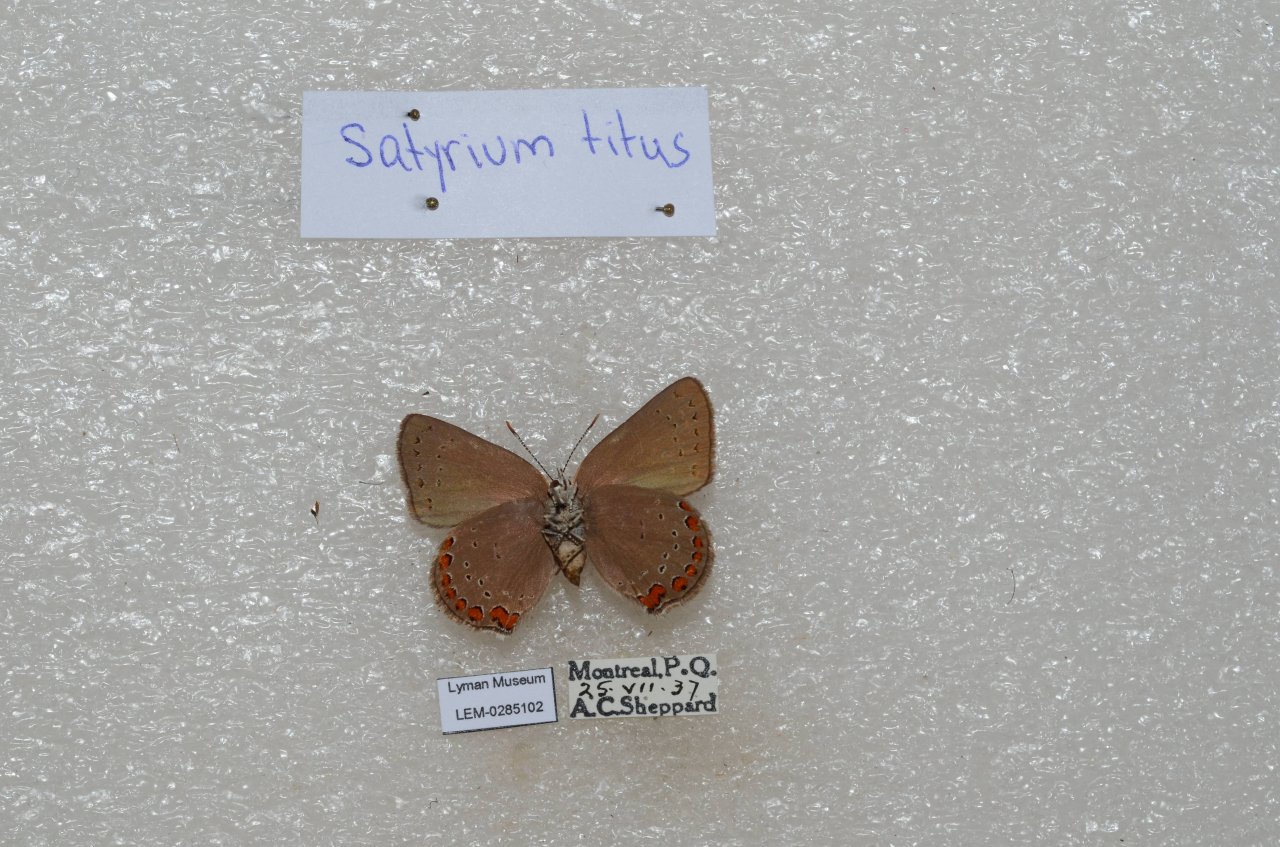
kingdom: Animalia
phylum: Arthropoda
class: Insecta
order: Lepidoptera
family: Lycaenidae
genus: Harkenclenus
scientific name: Harkenclenus titus
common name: Coral Hairstreak
